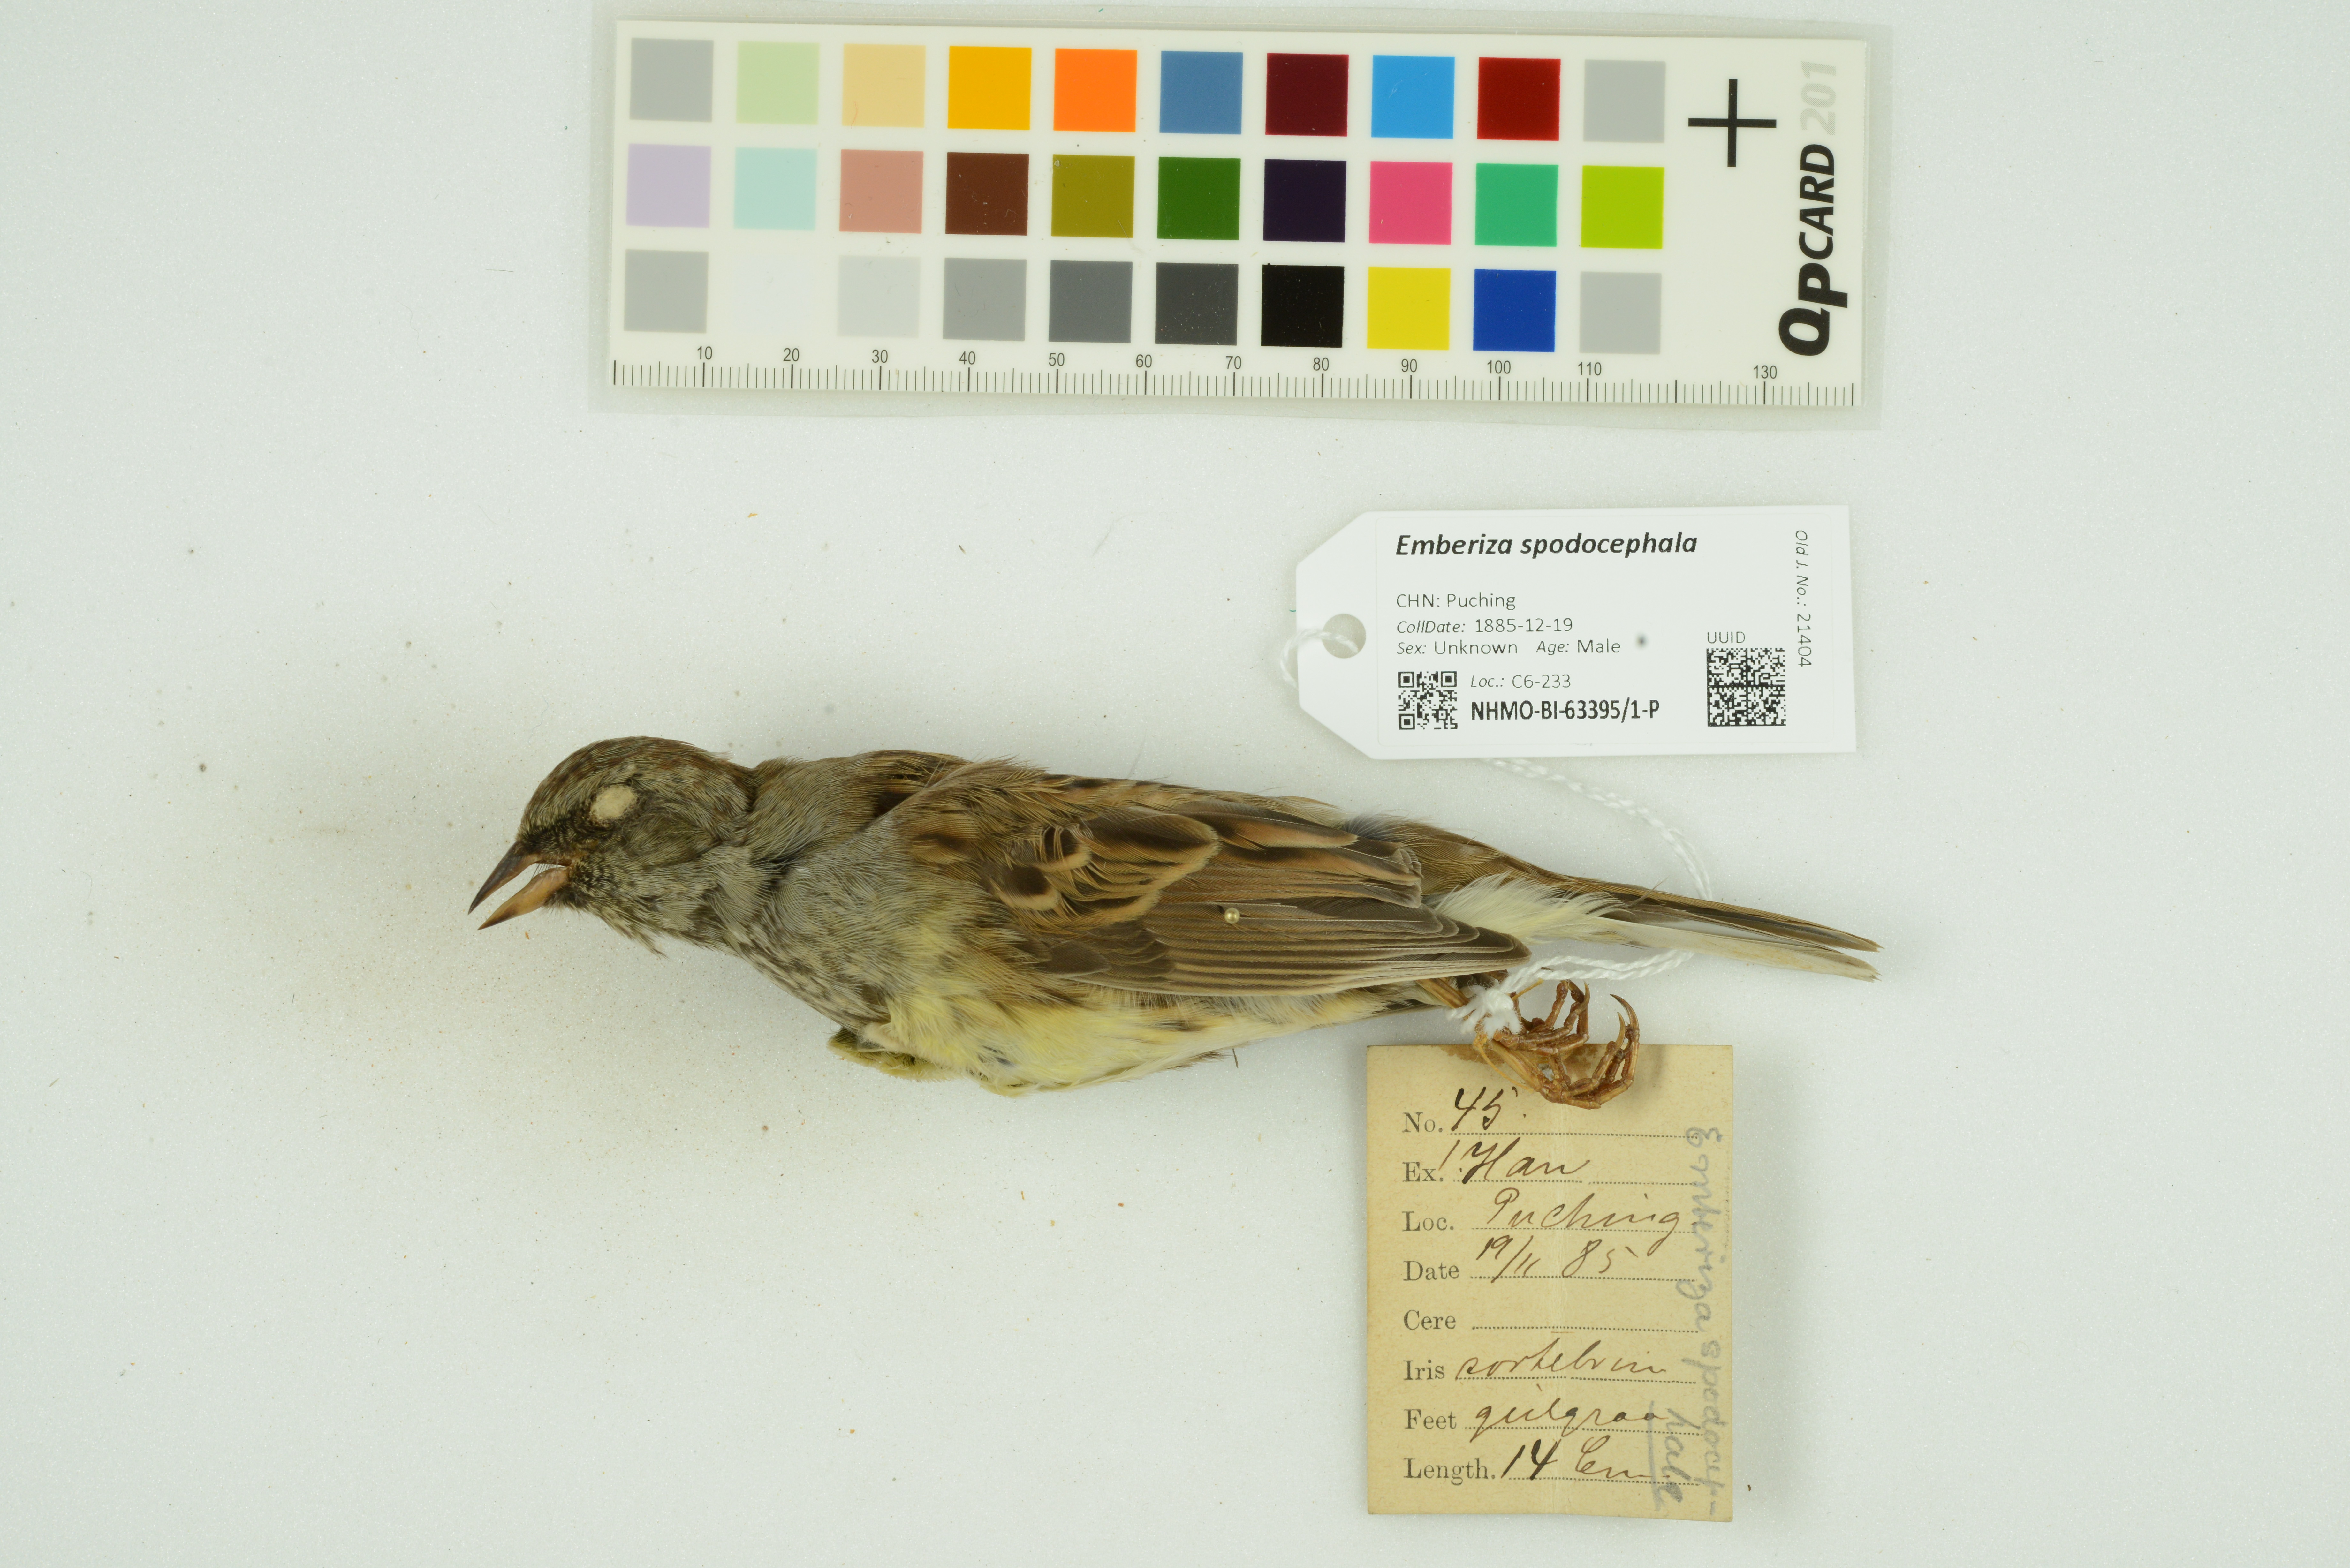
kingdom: Animalia
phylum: Chordata
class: Aves
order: Passeriformes
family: Emberizidae
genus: Emberiza
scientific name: Emberiza spodocephala
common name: Black-faced bunting
